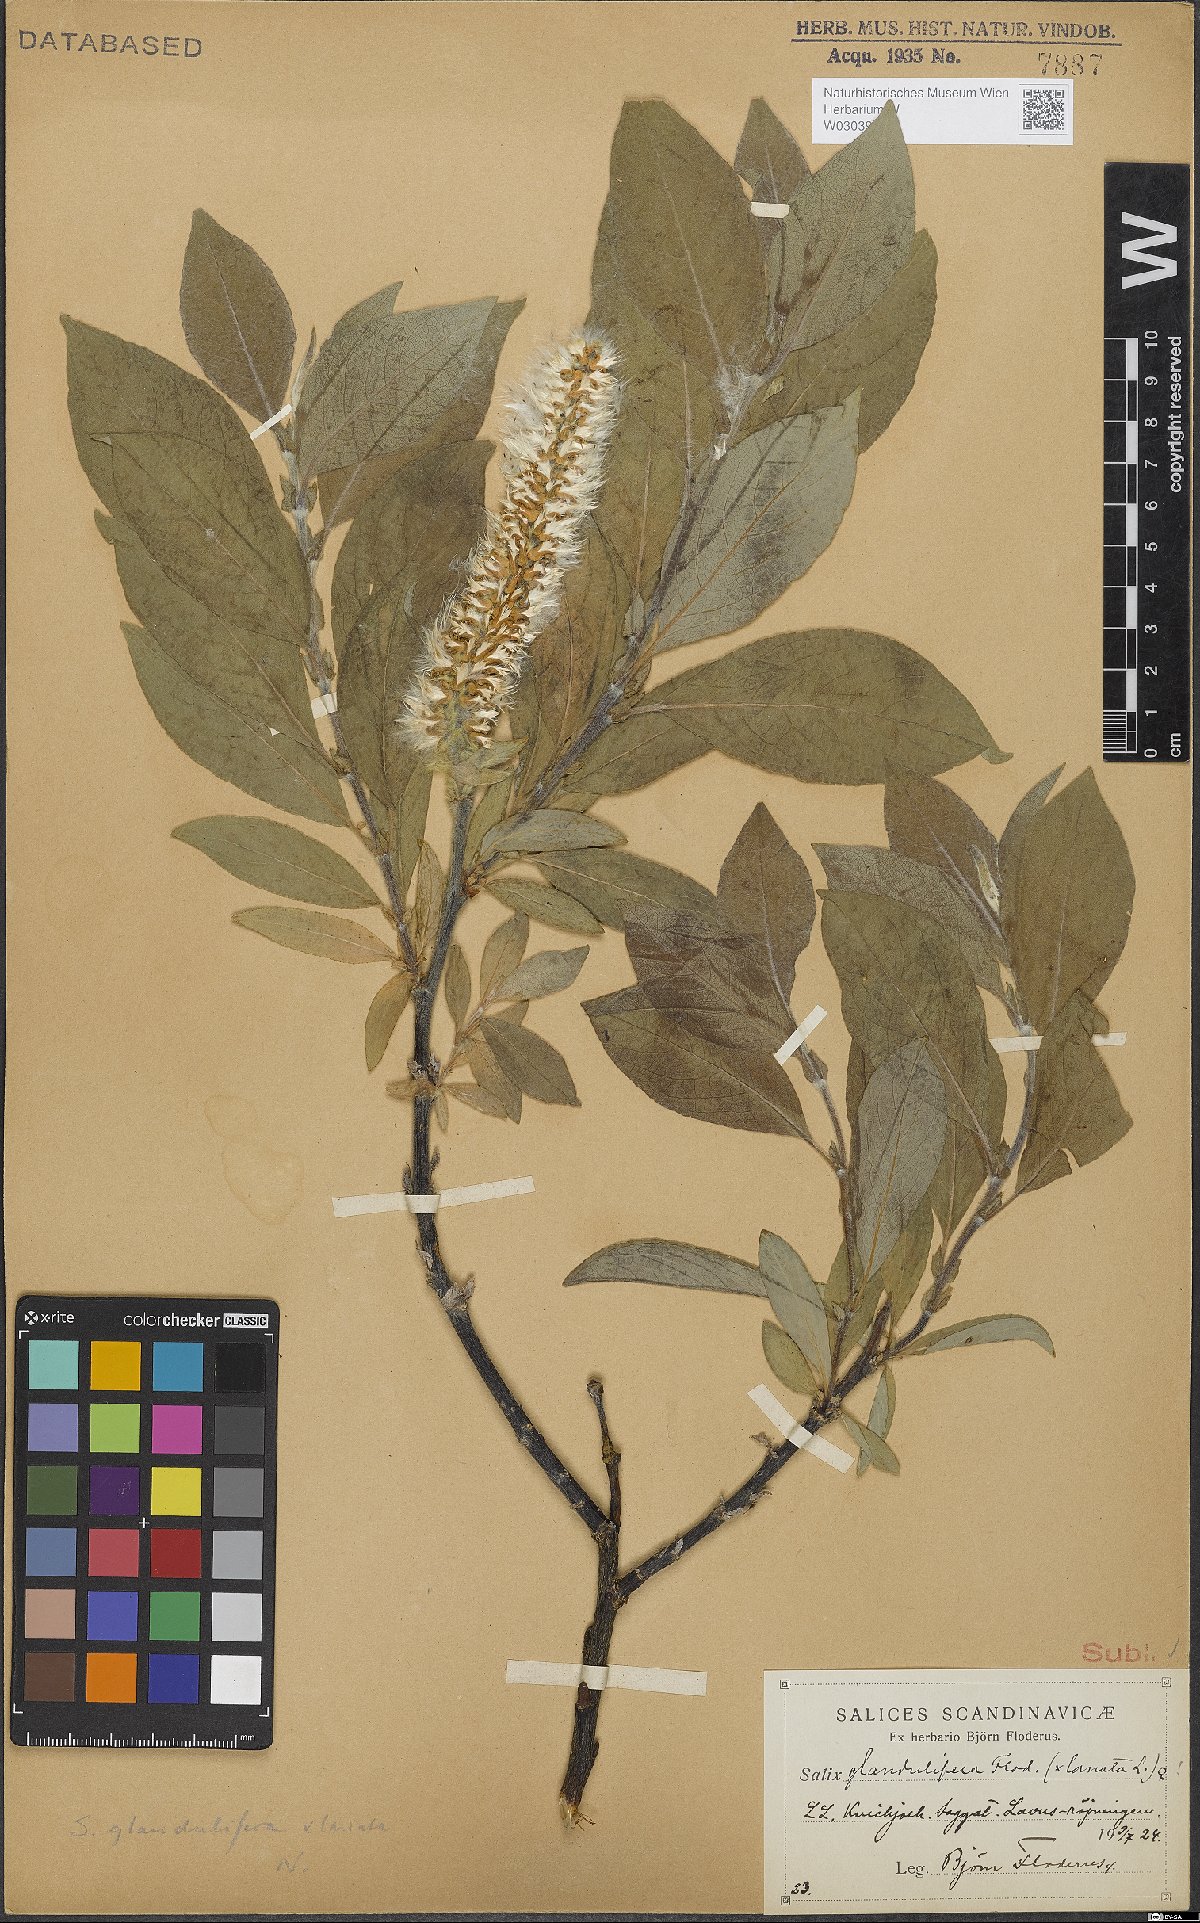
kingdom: Plantae
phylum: Tracheophyta
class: Magnoliopsida
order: Malpighiales
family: Salicaceae
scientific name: Salicaceae
